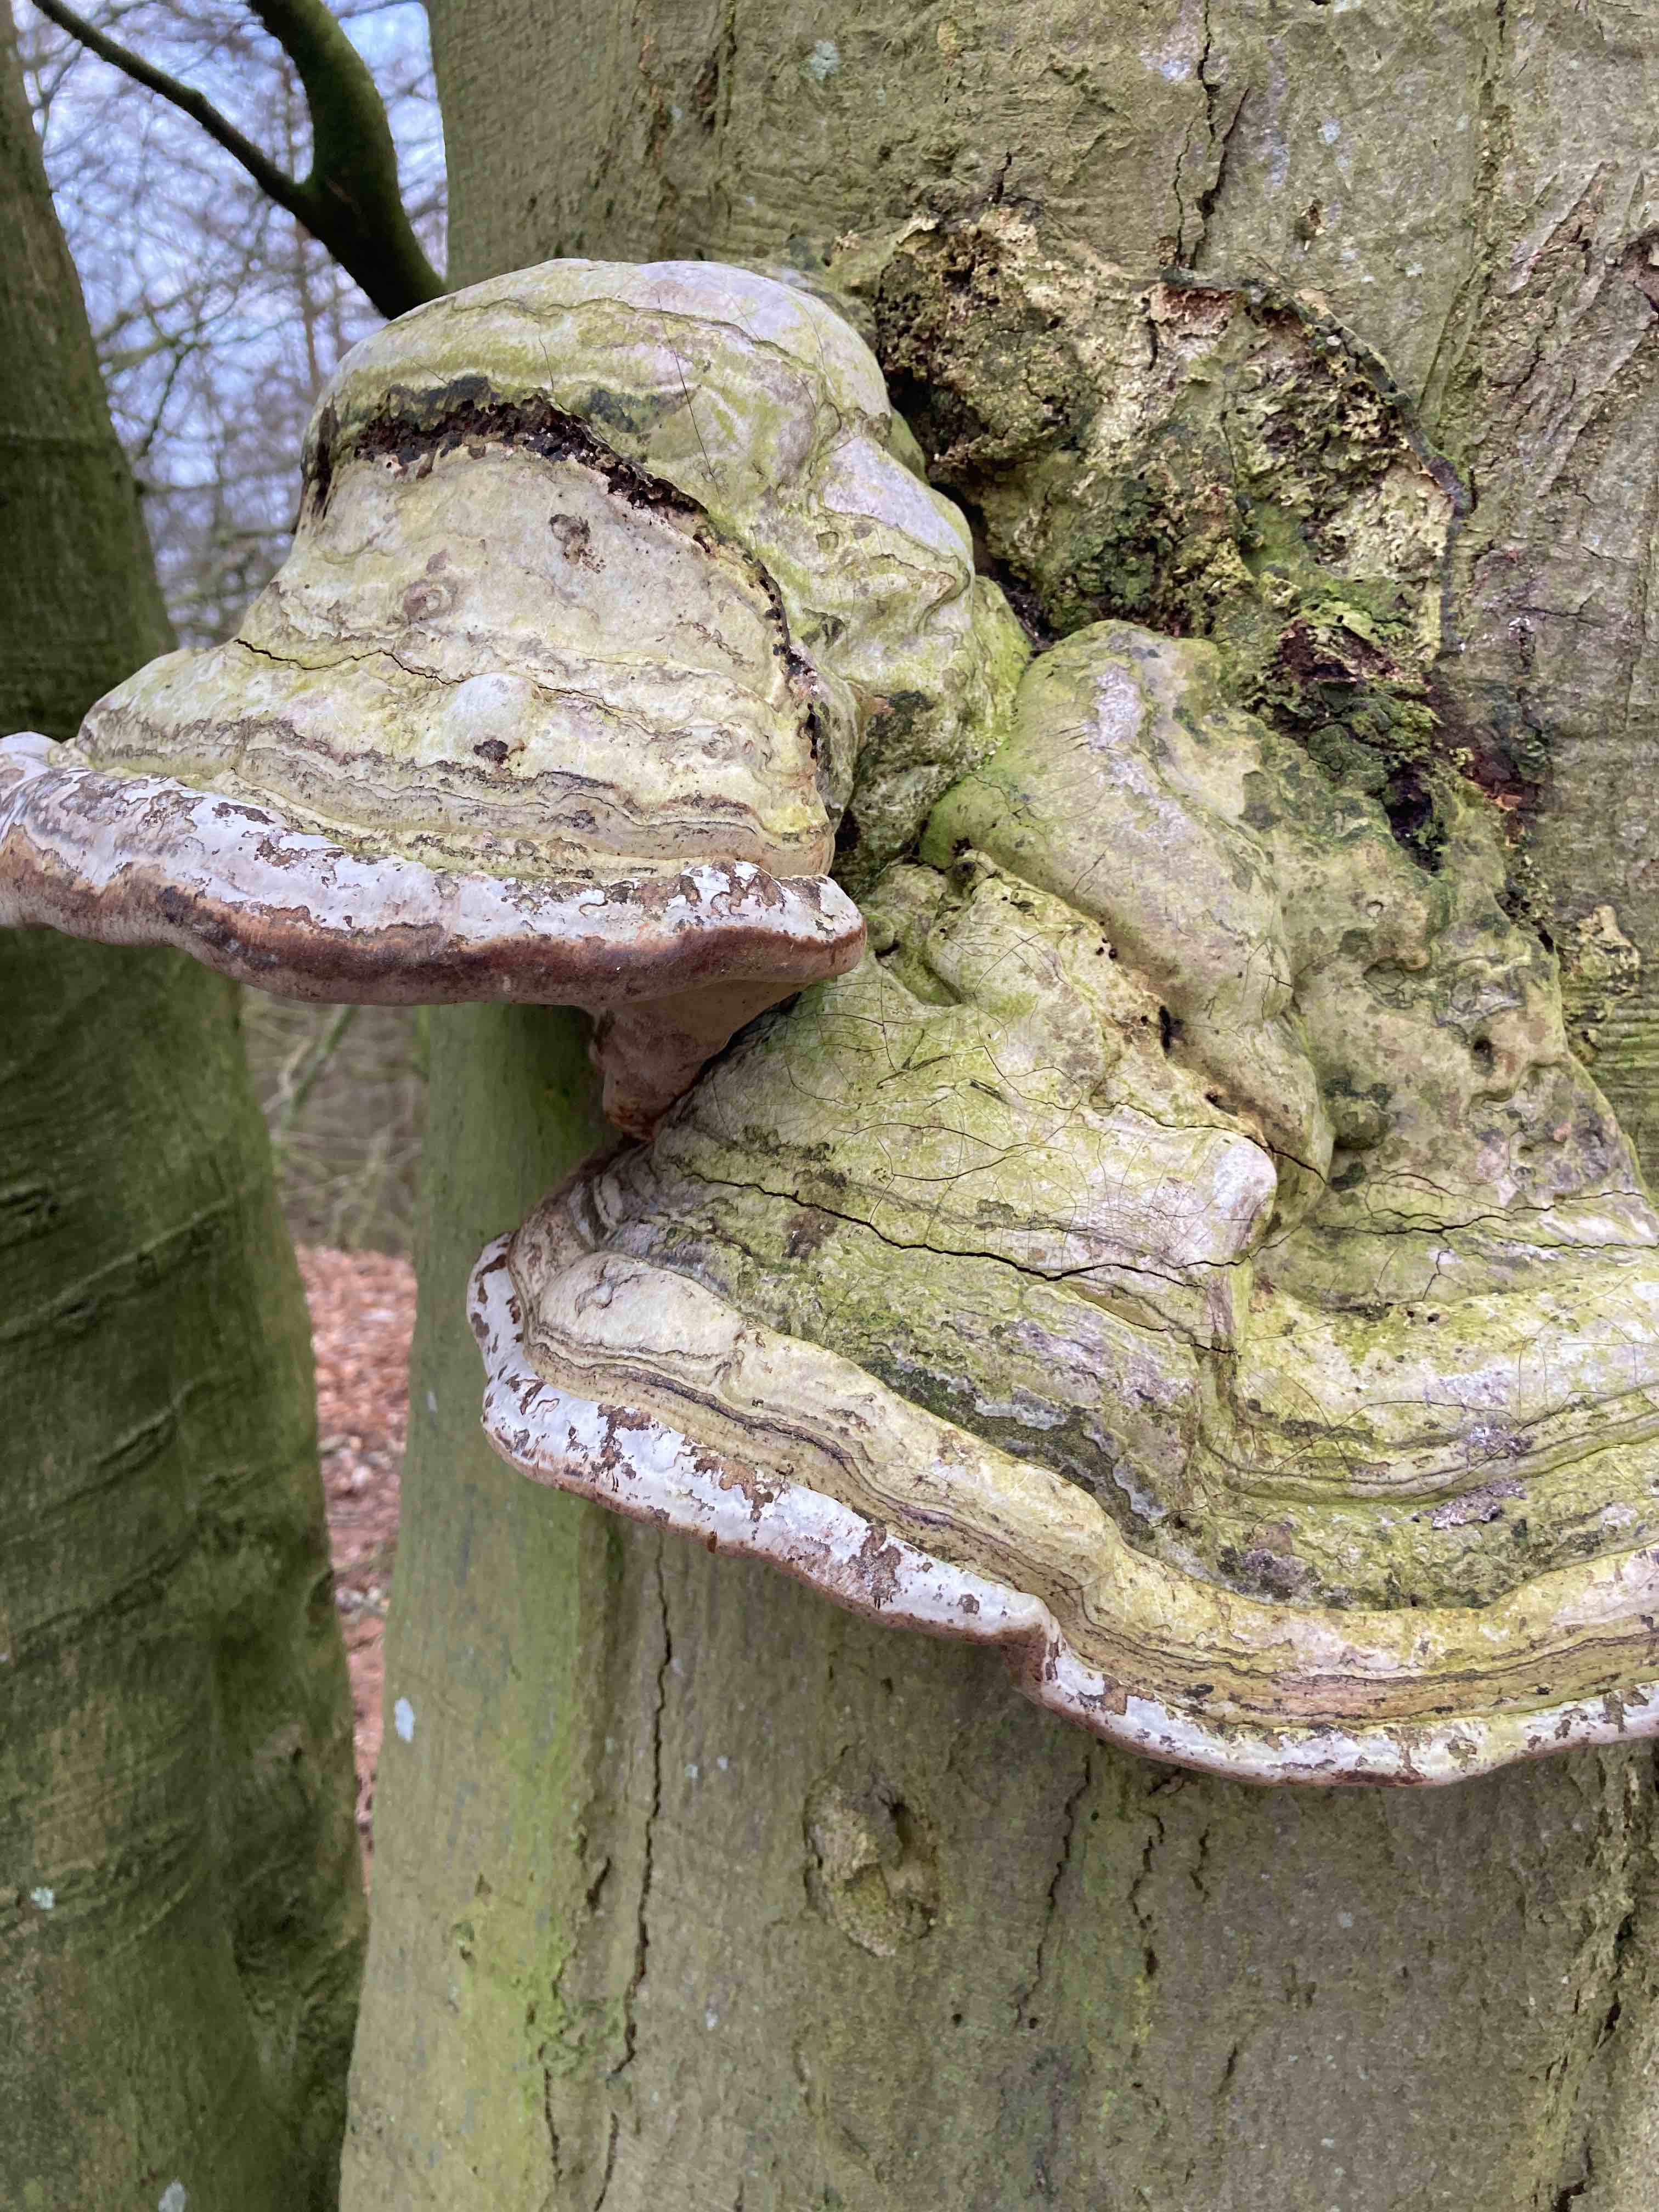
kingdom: Fungi
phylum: Basidiomycota
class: Agaricomycetes
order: Polyporales
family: Polyporaceae
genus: Fomes
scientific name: Fomes fomentarius
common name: tøndersvamp
